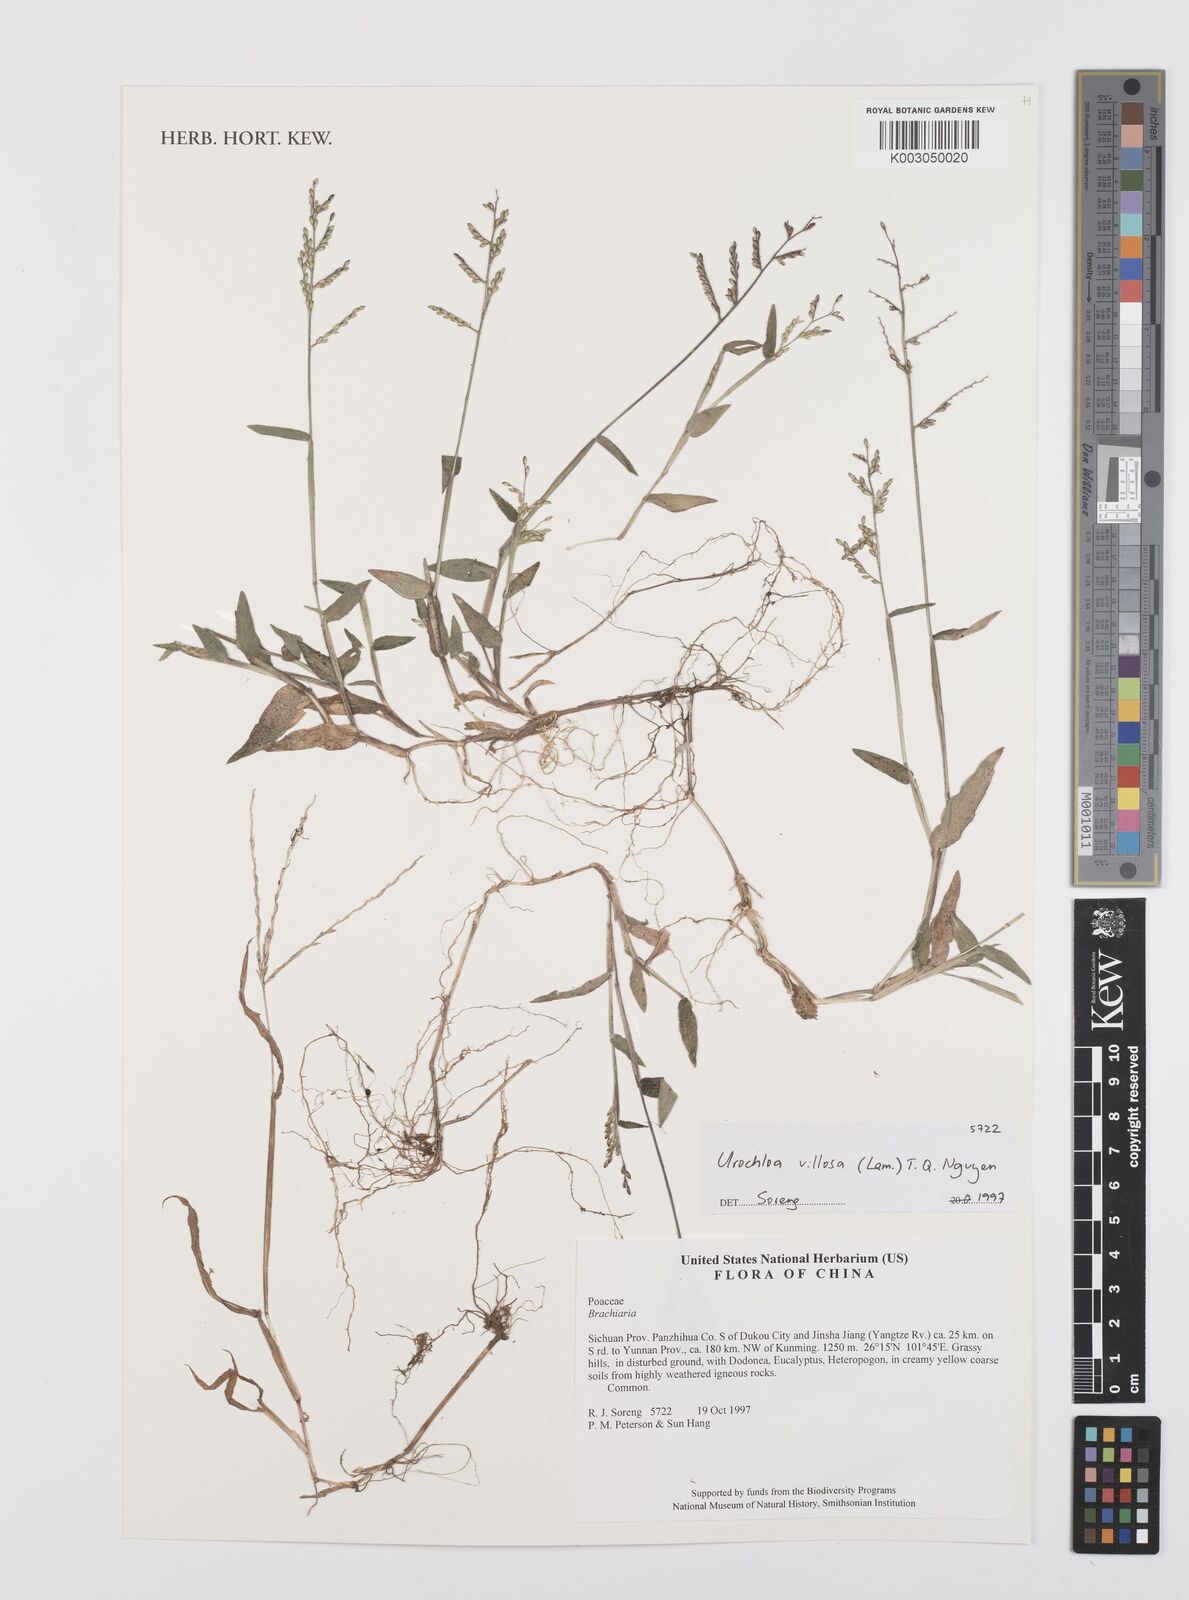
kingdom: Plantae
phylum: Tracheophyta
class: Liliopsida
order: Poales
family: Poaceae
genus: Urochloa
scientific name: Urochloa villosa
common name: Hairy signalgrass
